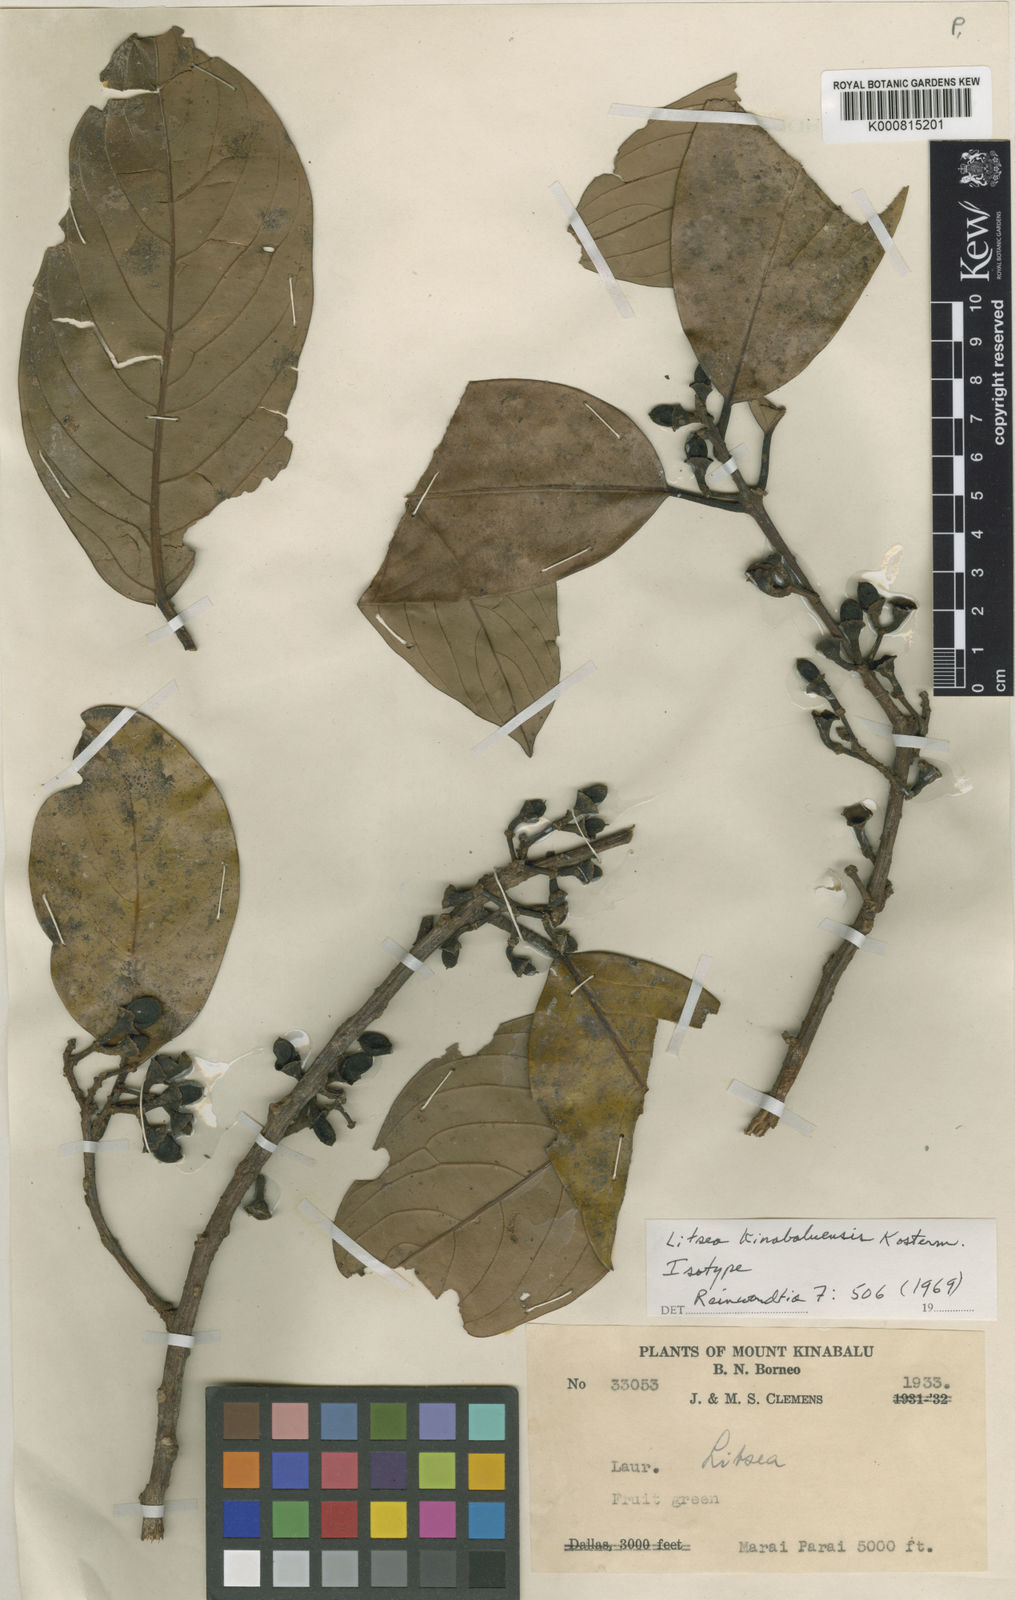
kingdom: Plantae
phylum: Tracheophyta
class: Magnoliopsida
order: Laurales
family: Lauraceae
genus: Litsea
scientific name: Litsea accedens
